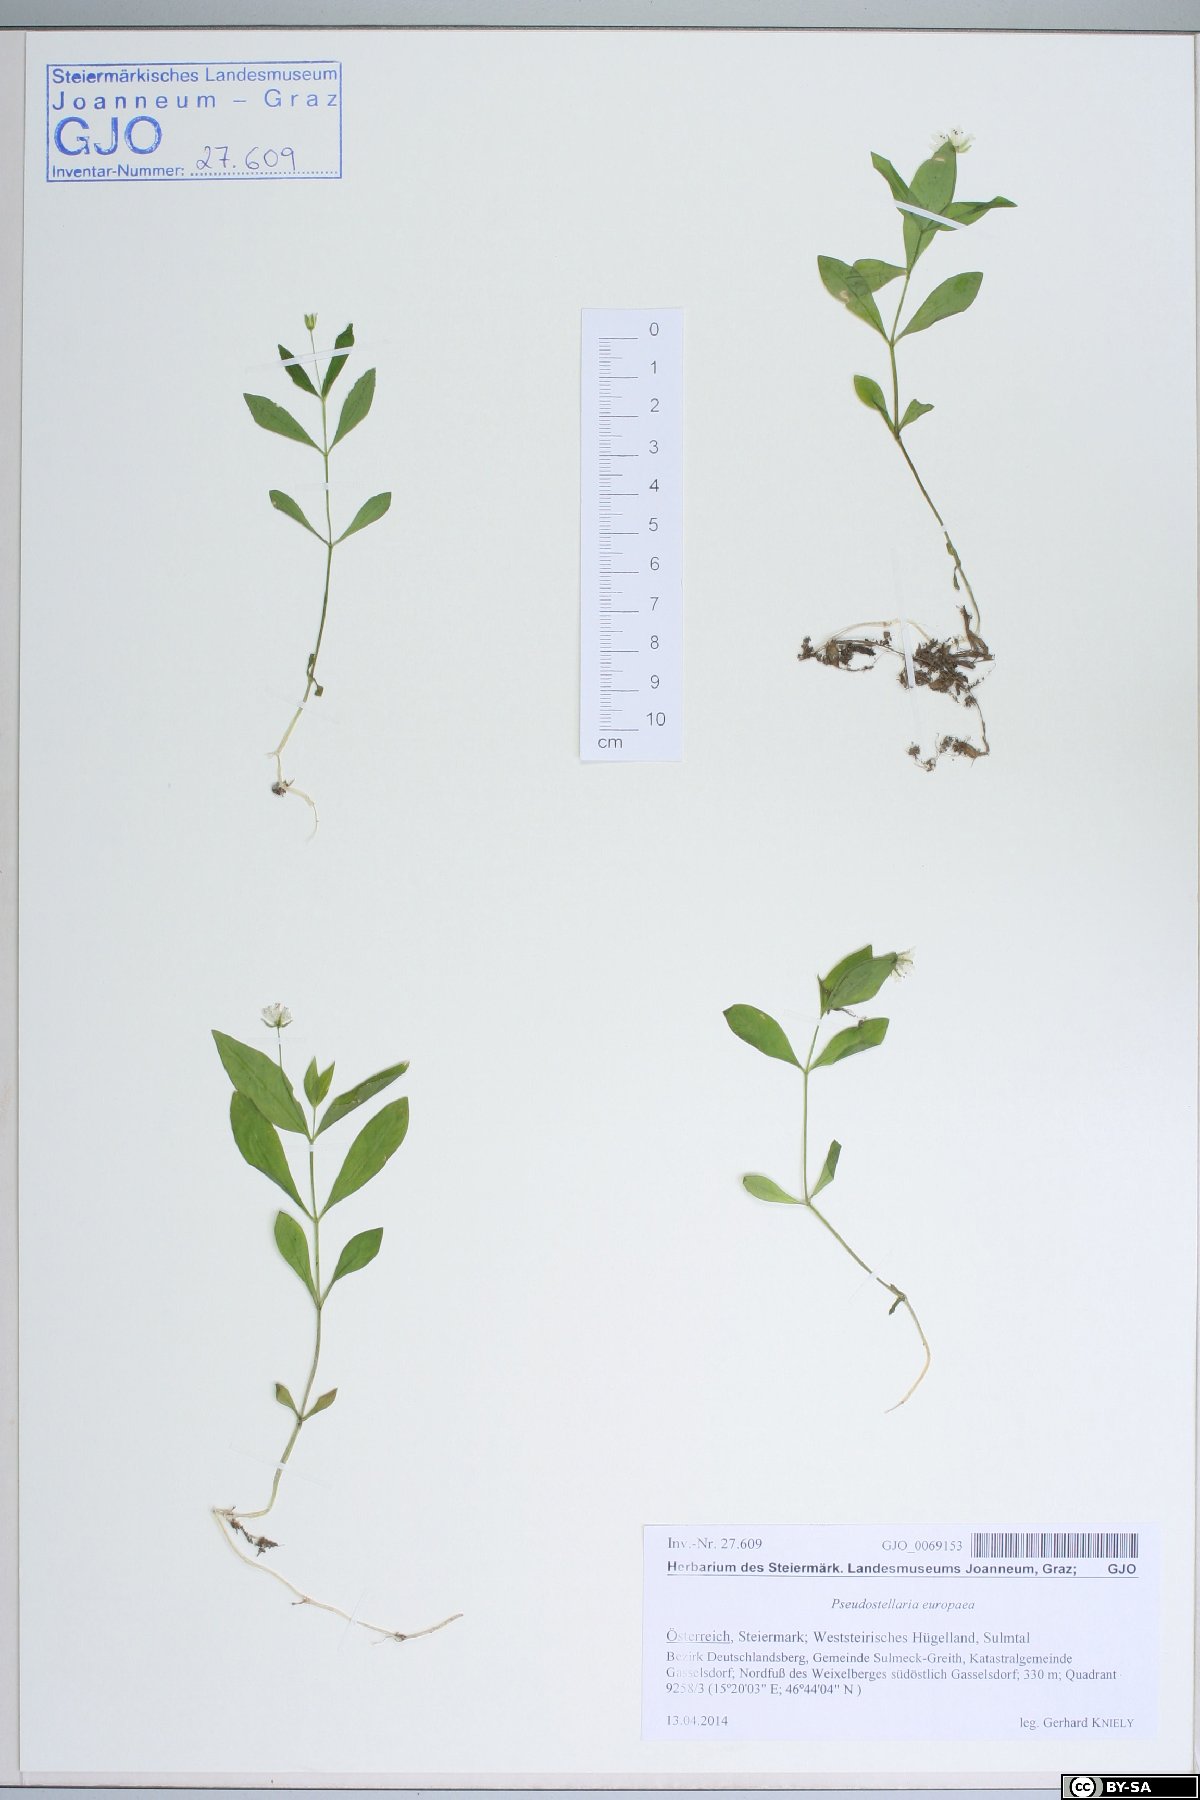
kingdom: Plantae
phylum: Tracheophyta
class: Magnoliopsida
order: Caryophyllales
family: Caryophyllaceae
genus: Pseudostellaria
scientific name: Pseudostellaria europaea
